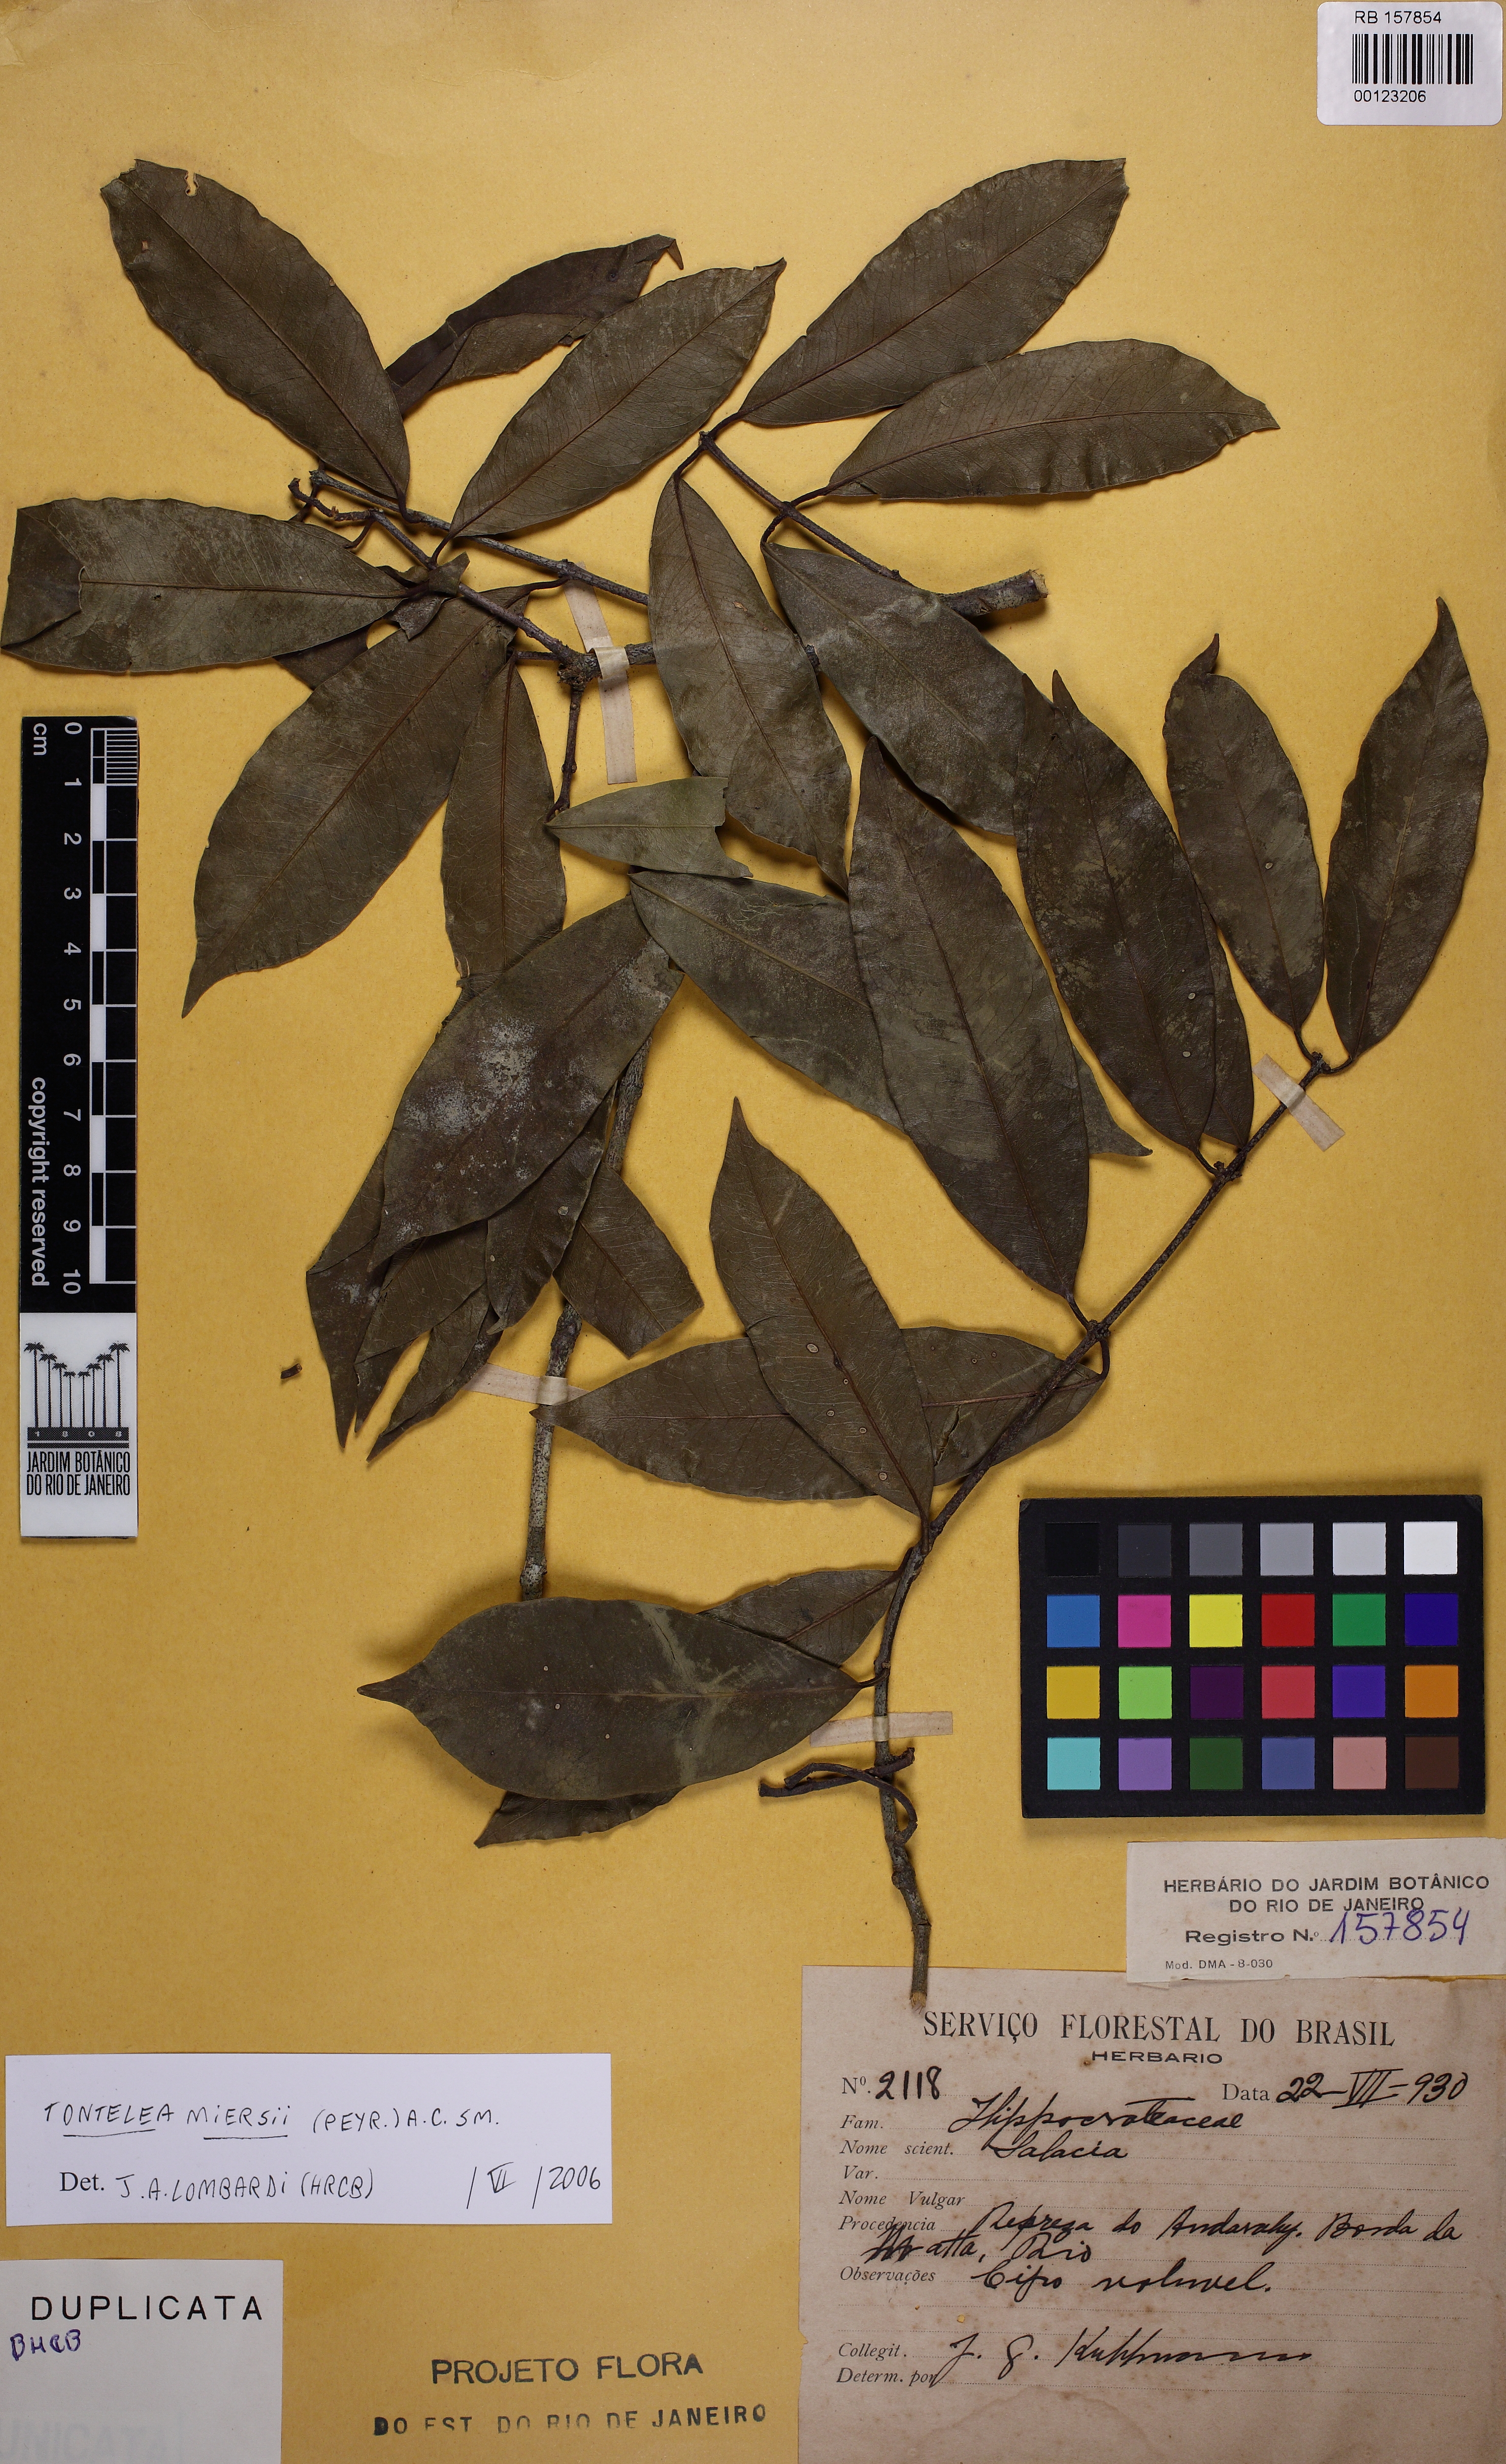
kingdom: Plantae
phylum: Tracheophyta
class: Magnoliopsida
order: Celastrales
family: Celastraceae
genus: Tontelea
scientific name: Tontelea miersii
